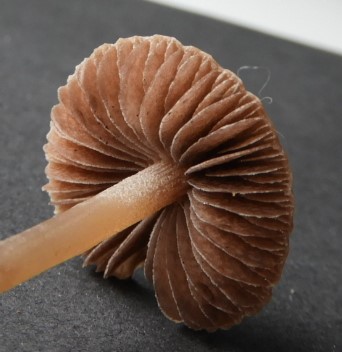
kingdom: Fungi
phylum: Basidiomycota
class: Agaricomycetes
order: Agaricales
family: Bolbitiaceae
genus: Panaeolina
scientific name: Panaeolina foenisecii
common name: høslætsvamp
